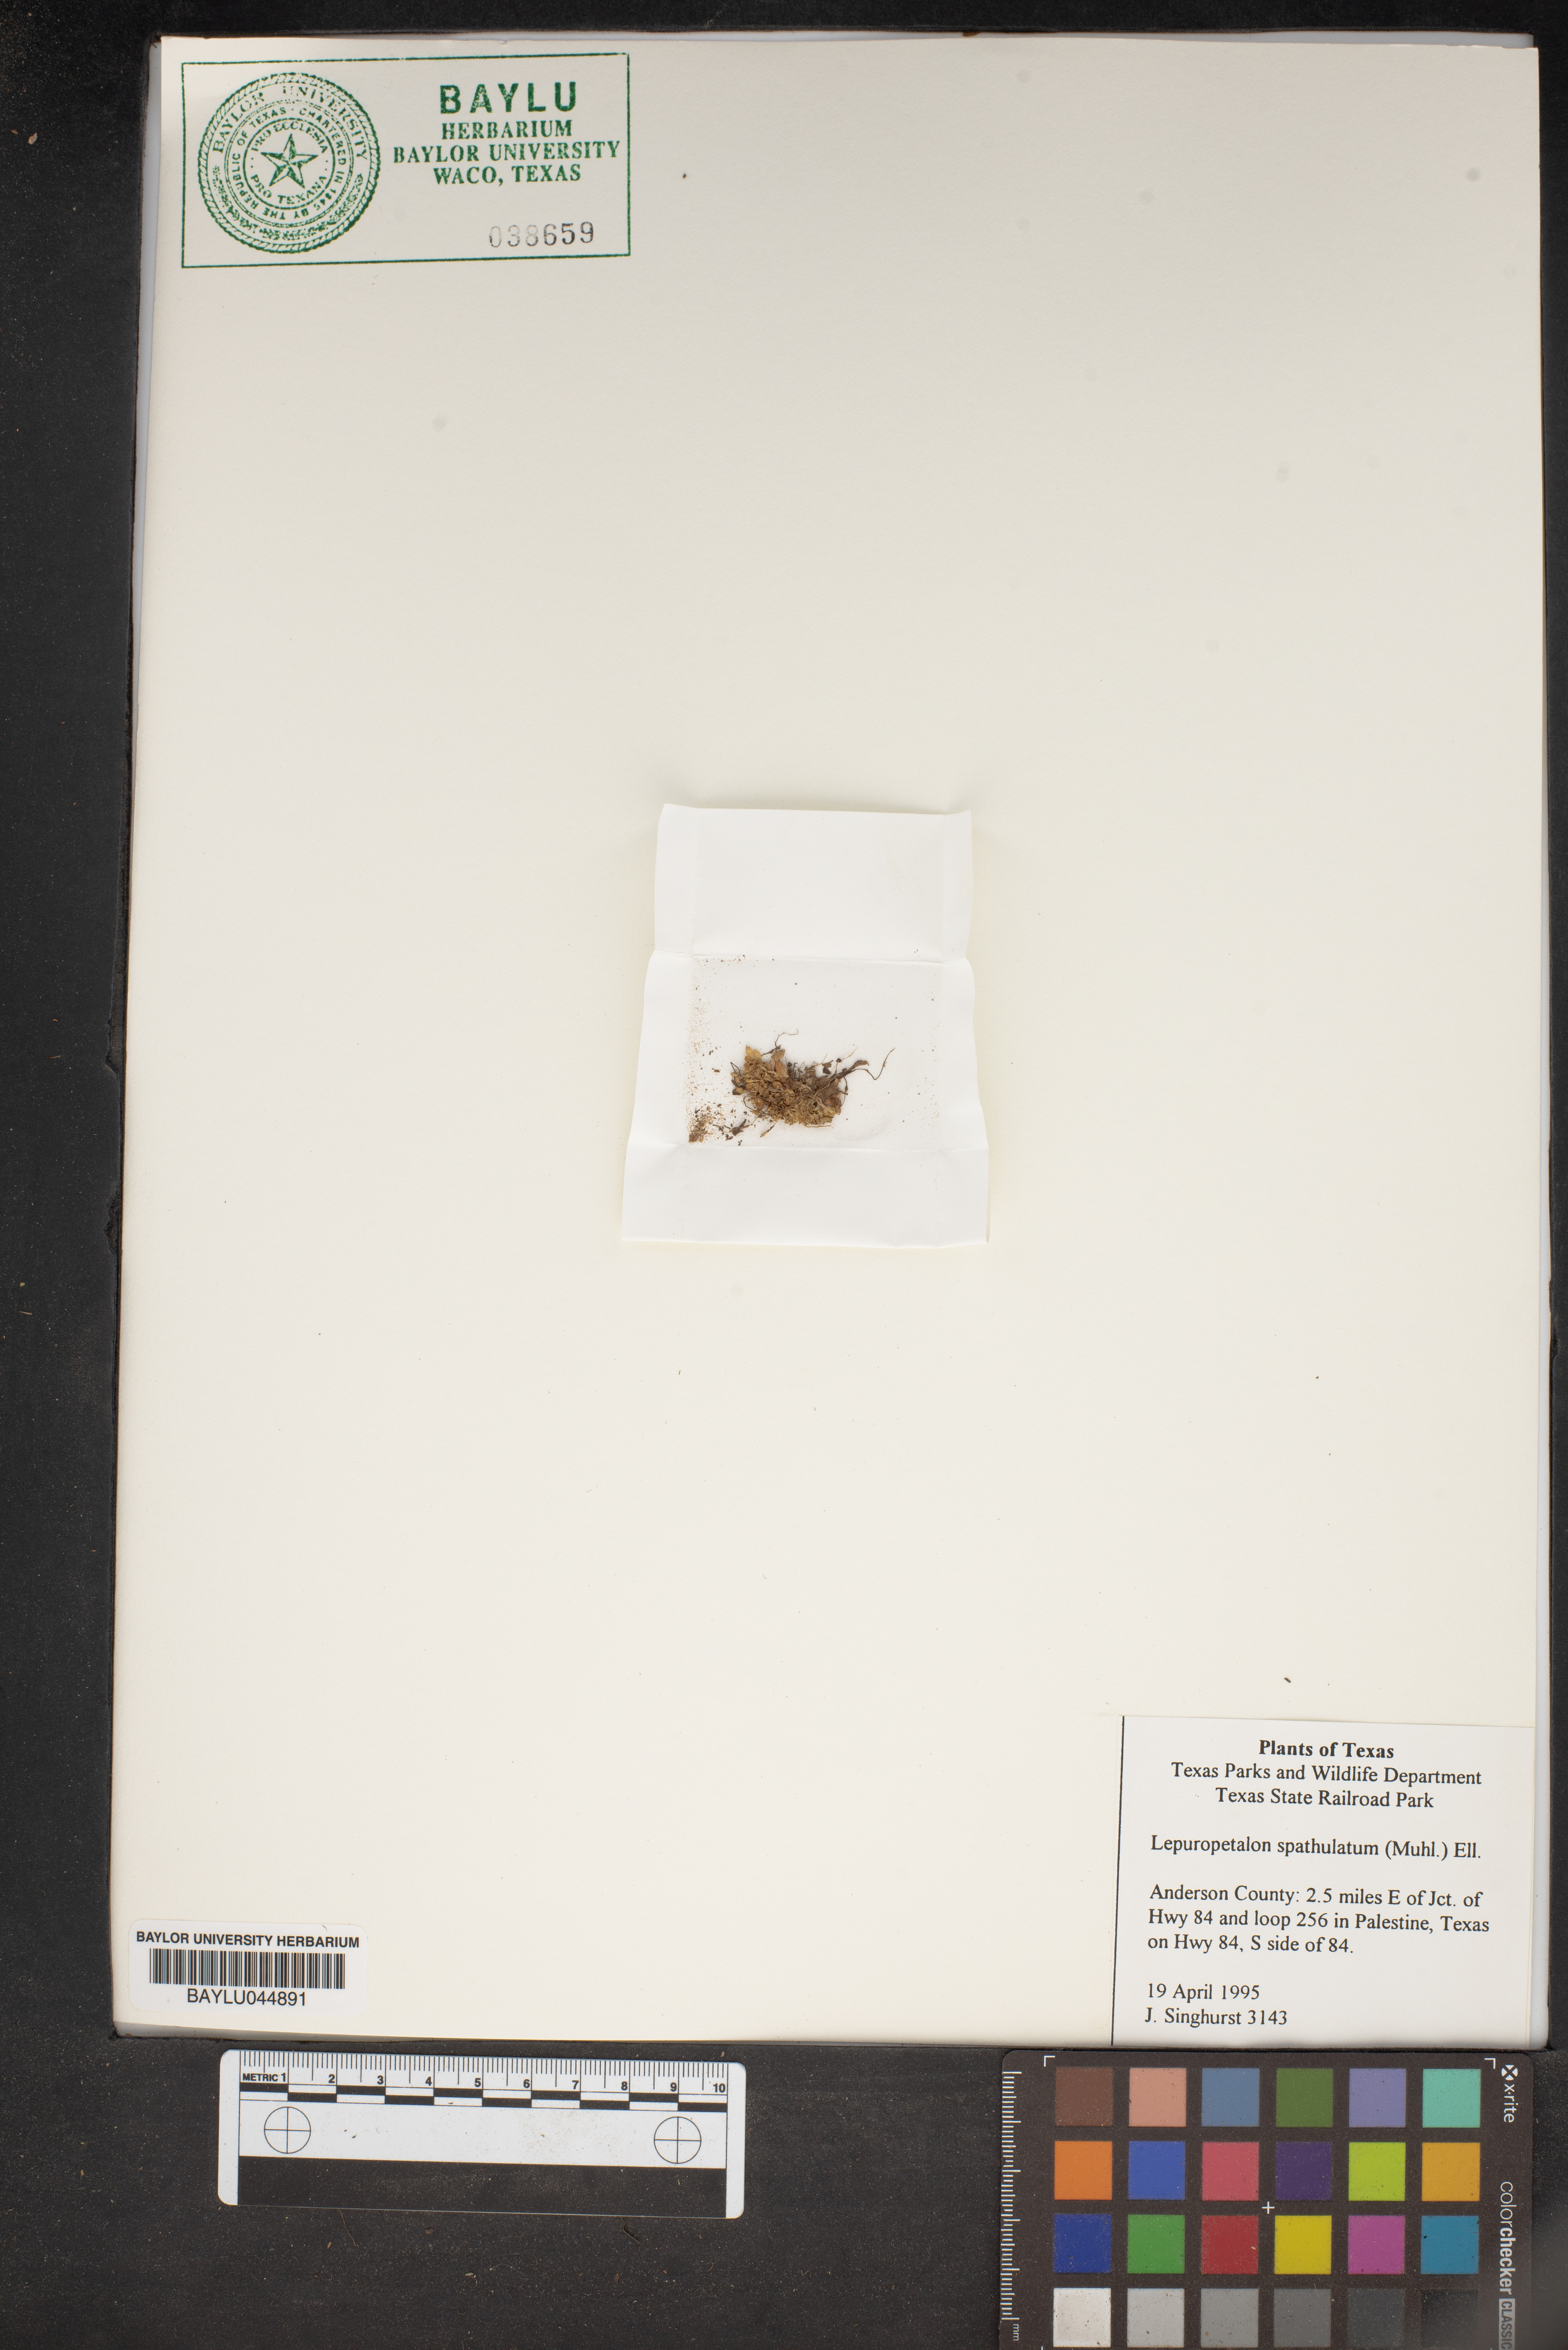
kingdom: Plantae
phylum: Tracheophyta
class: Magnoliopsida
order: Celastrales
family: Parnassiaceae
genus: Lepuropetalon
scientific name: Lepuropetalon spathulatum
